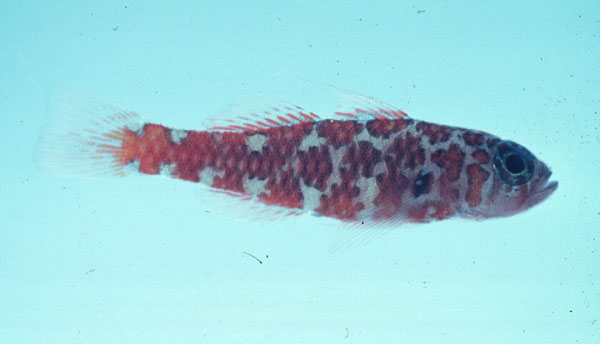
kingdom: Animalia
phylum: Chordata
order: Perciformes
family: Gobiidae
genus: Trimma
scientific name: Trimma naudei
